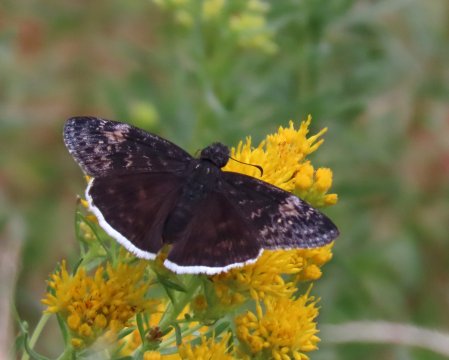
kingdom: Animalia
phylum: Arthropoda
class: Insecta
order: Lepidoptera
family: Hesperiidae
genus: Erynnis
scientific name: Erynnis funeralis
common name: Funereal Duskywing
